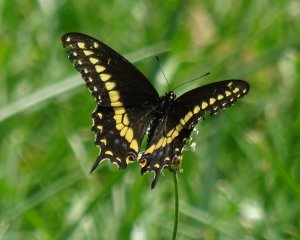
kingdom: Animalia
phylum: Arthropoda
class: Insecta
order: Lepidoptera
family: Papilionidae
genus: Papilio
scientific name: Papilio polyxenes
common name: Black Swallowtail
